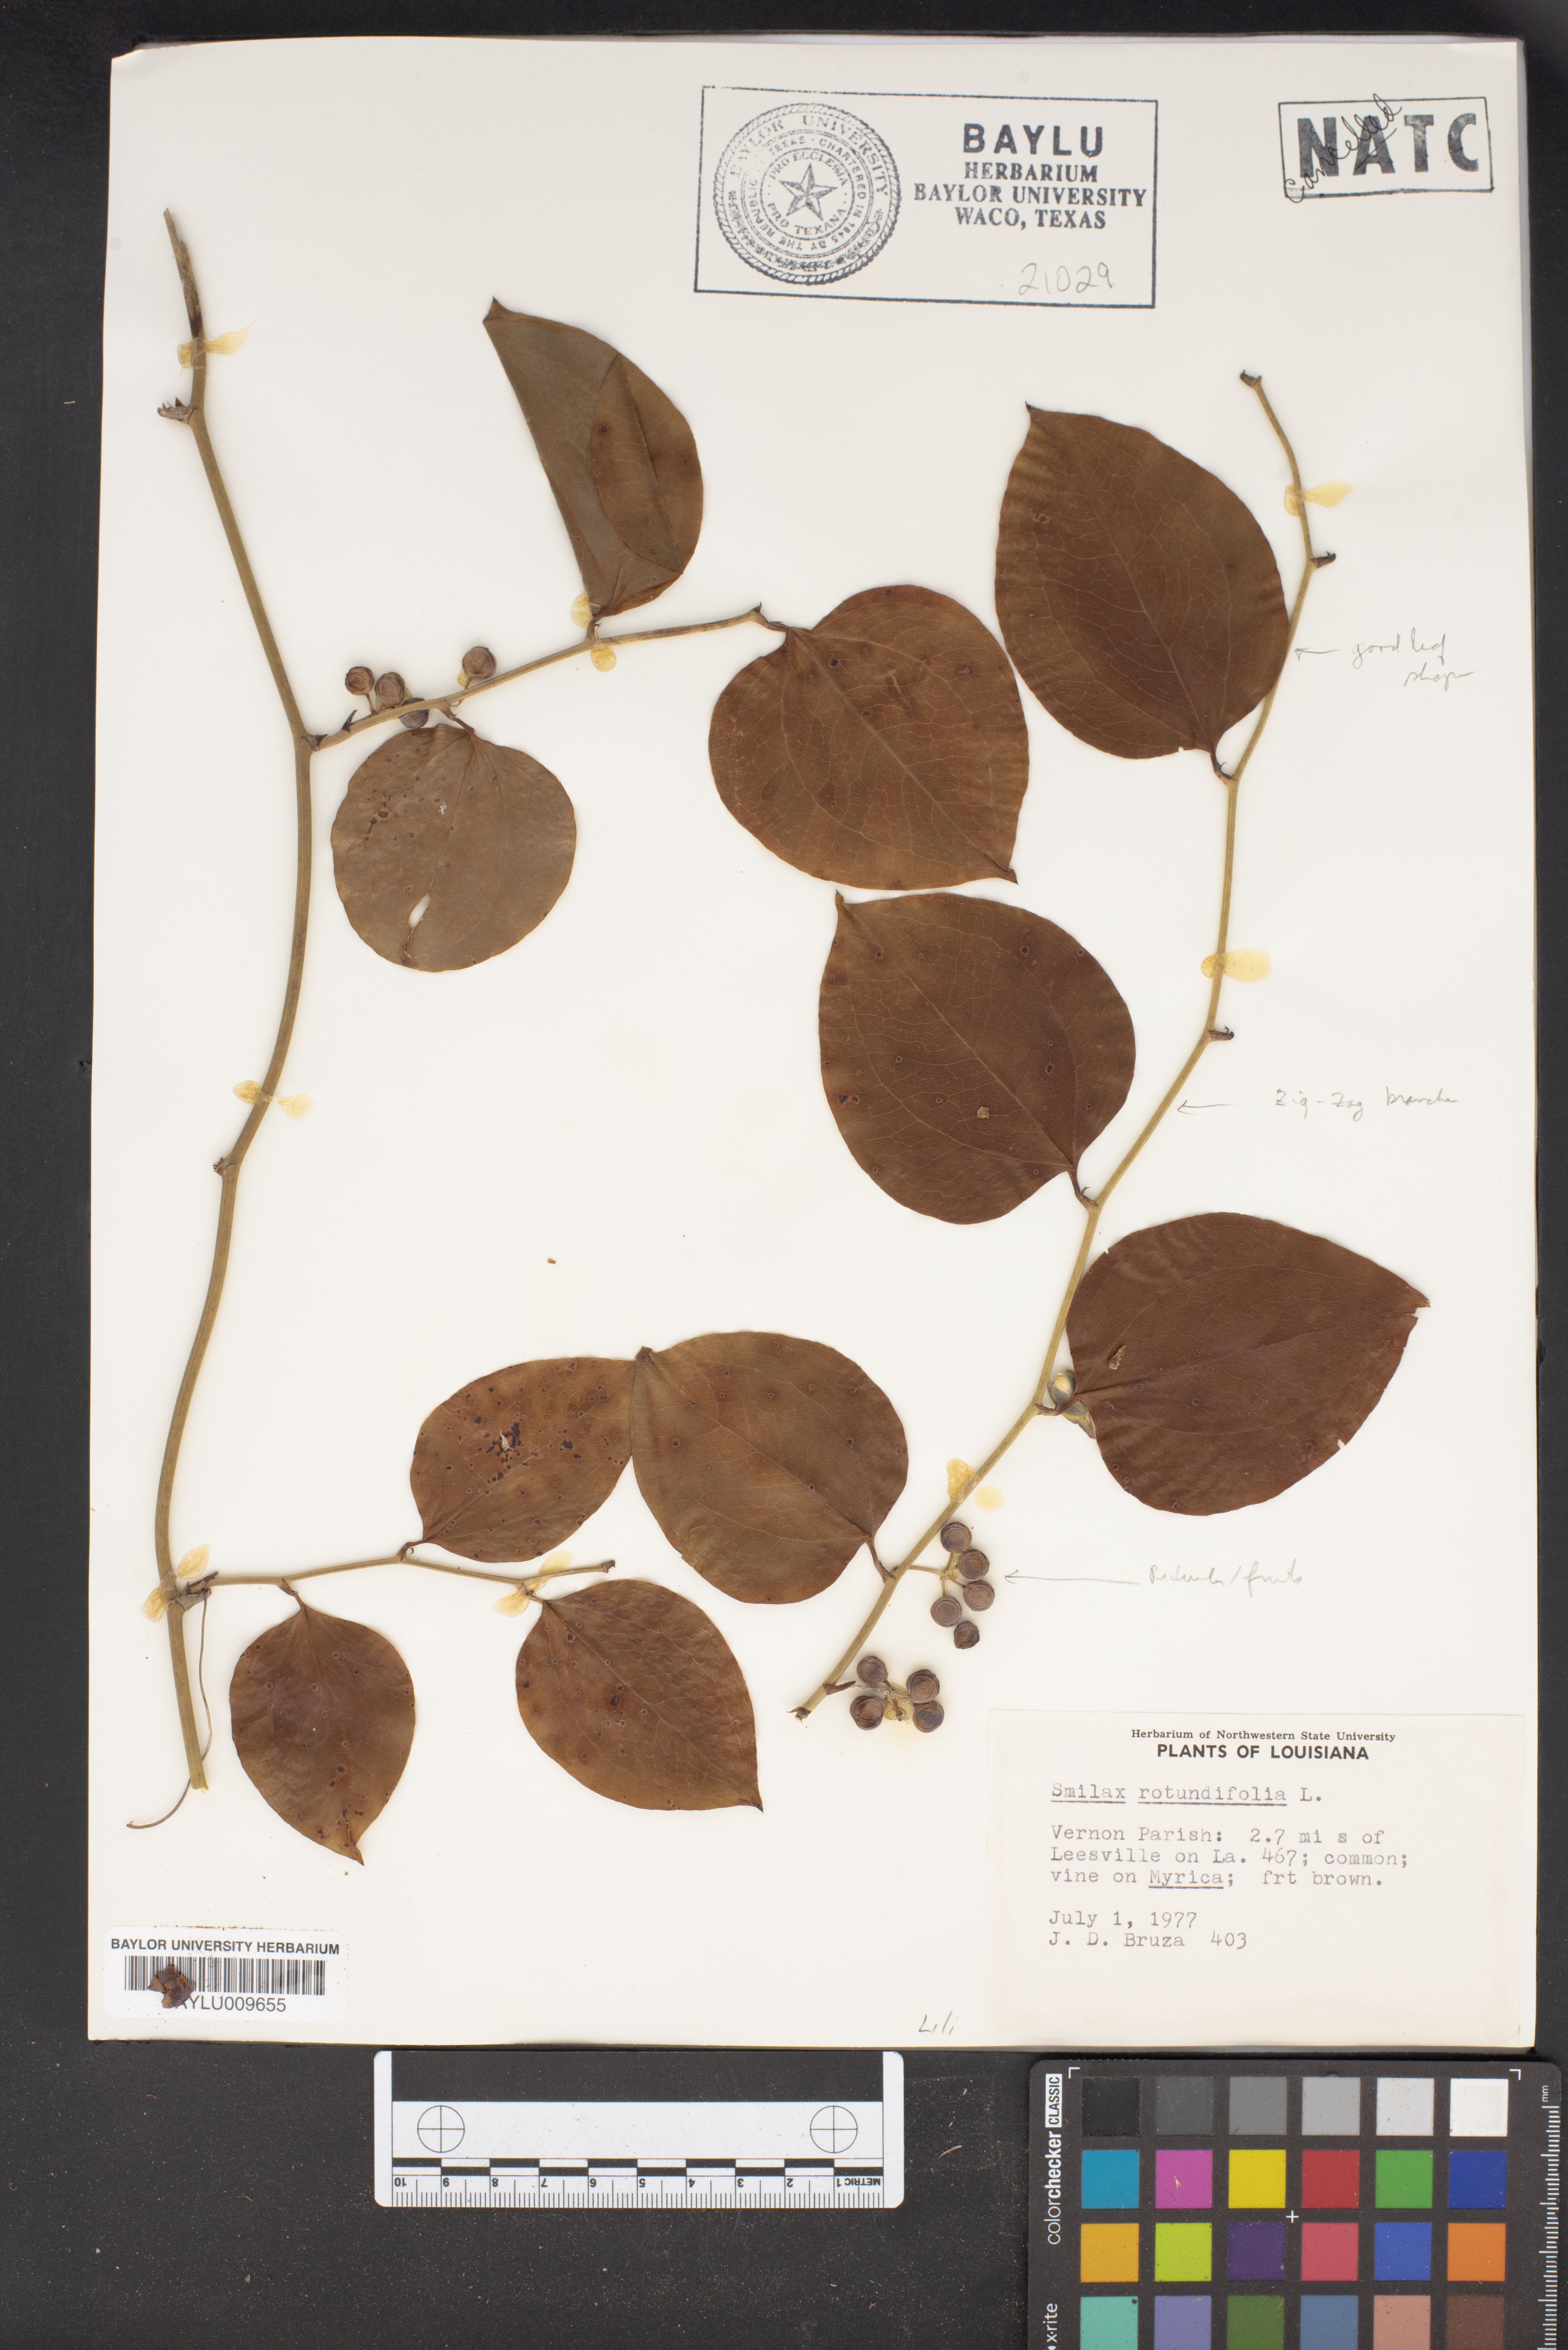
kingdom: Plantae
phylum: Tracheophyta
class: Liliopsida
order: Liliales
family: Smilacaceae
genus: Smilax
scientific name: Smilax rotundifolia
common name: Bullbriar
